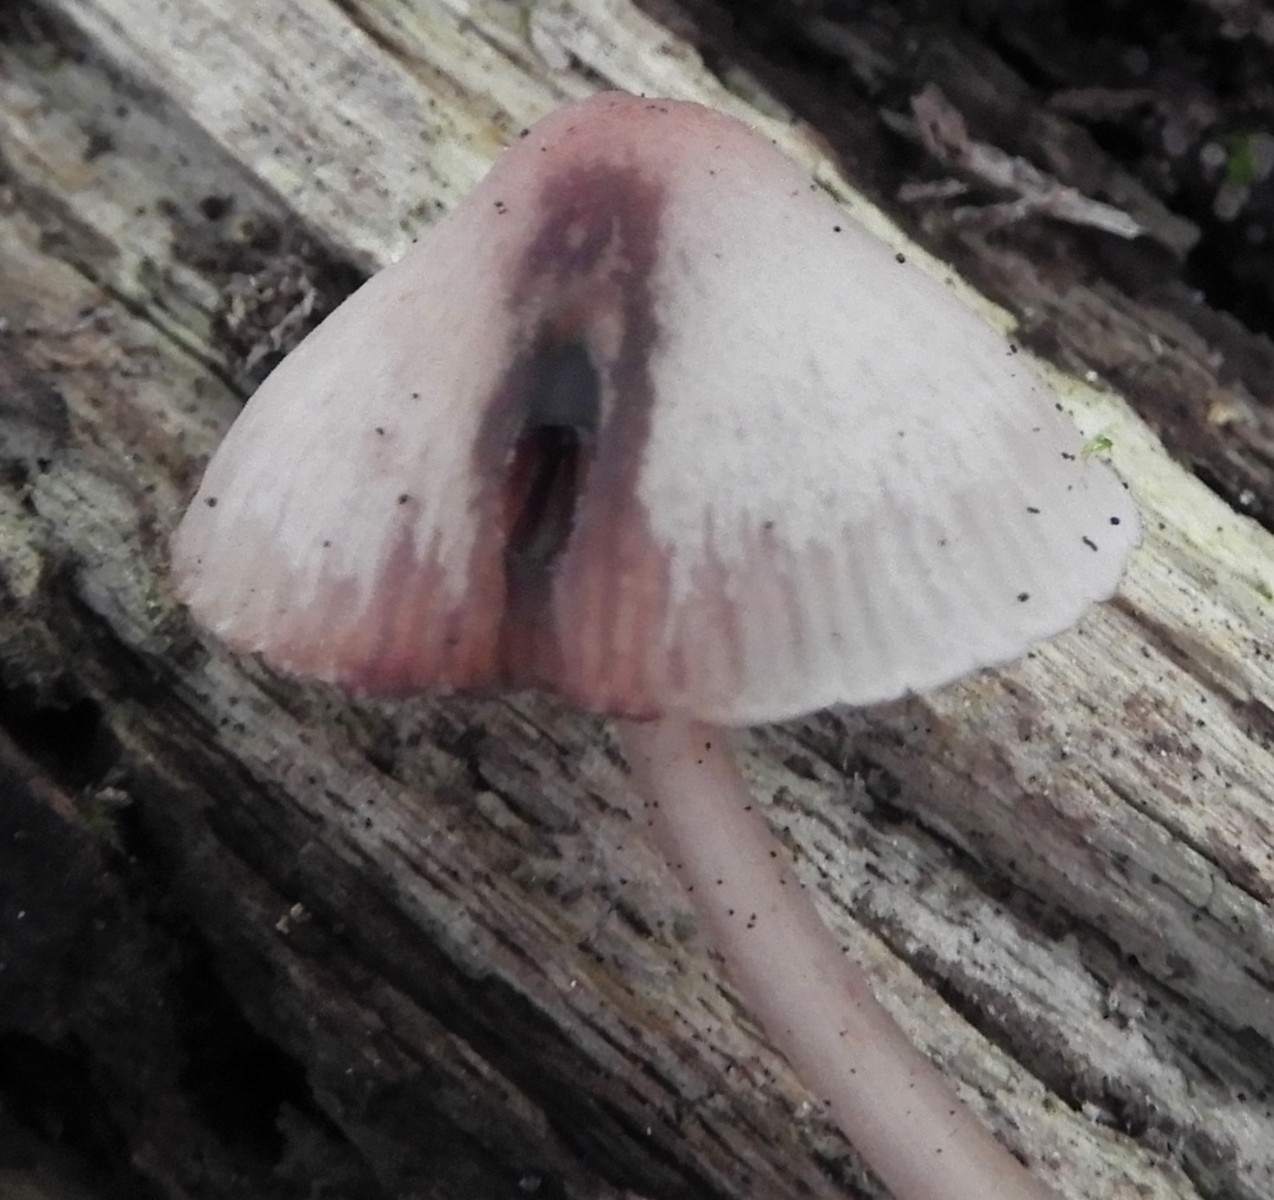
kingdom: Fungi
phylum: Basidiomycota
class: Agaricomycetes
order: Agaricales
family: Mycenaceae
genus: Mycena
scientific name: Mycena haematopus
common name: blødende huesvamp
